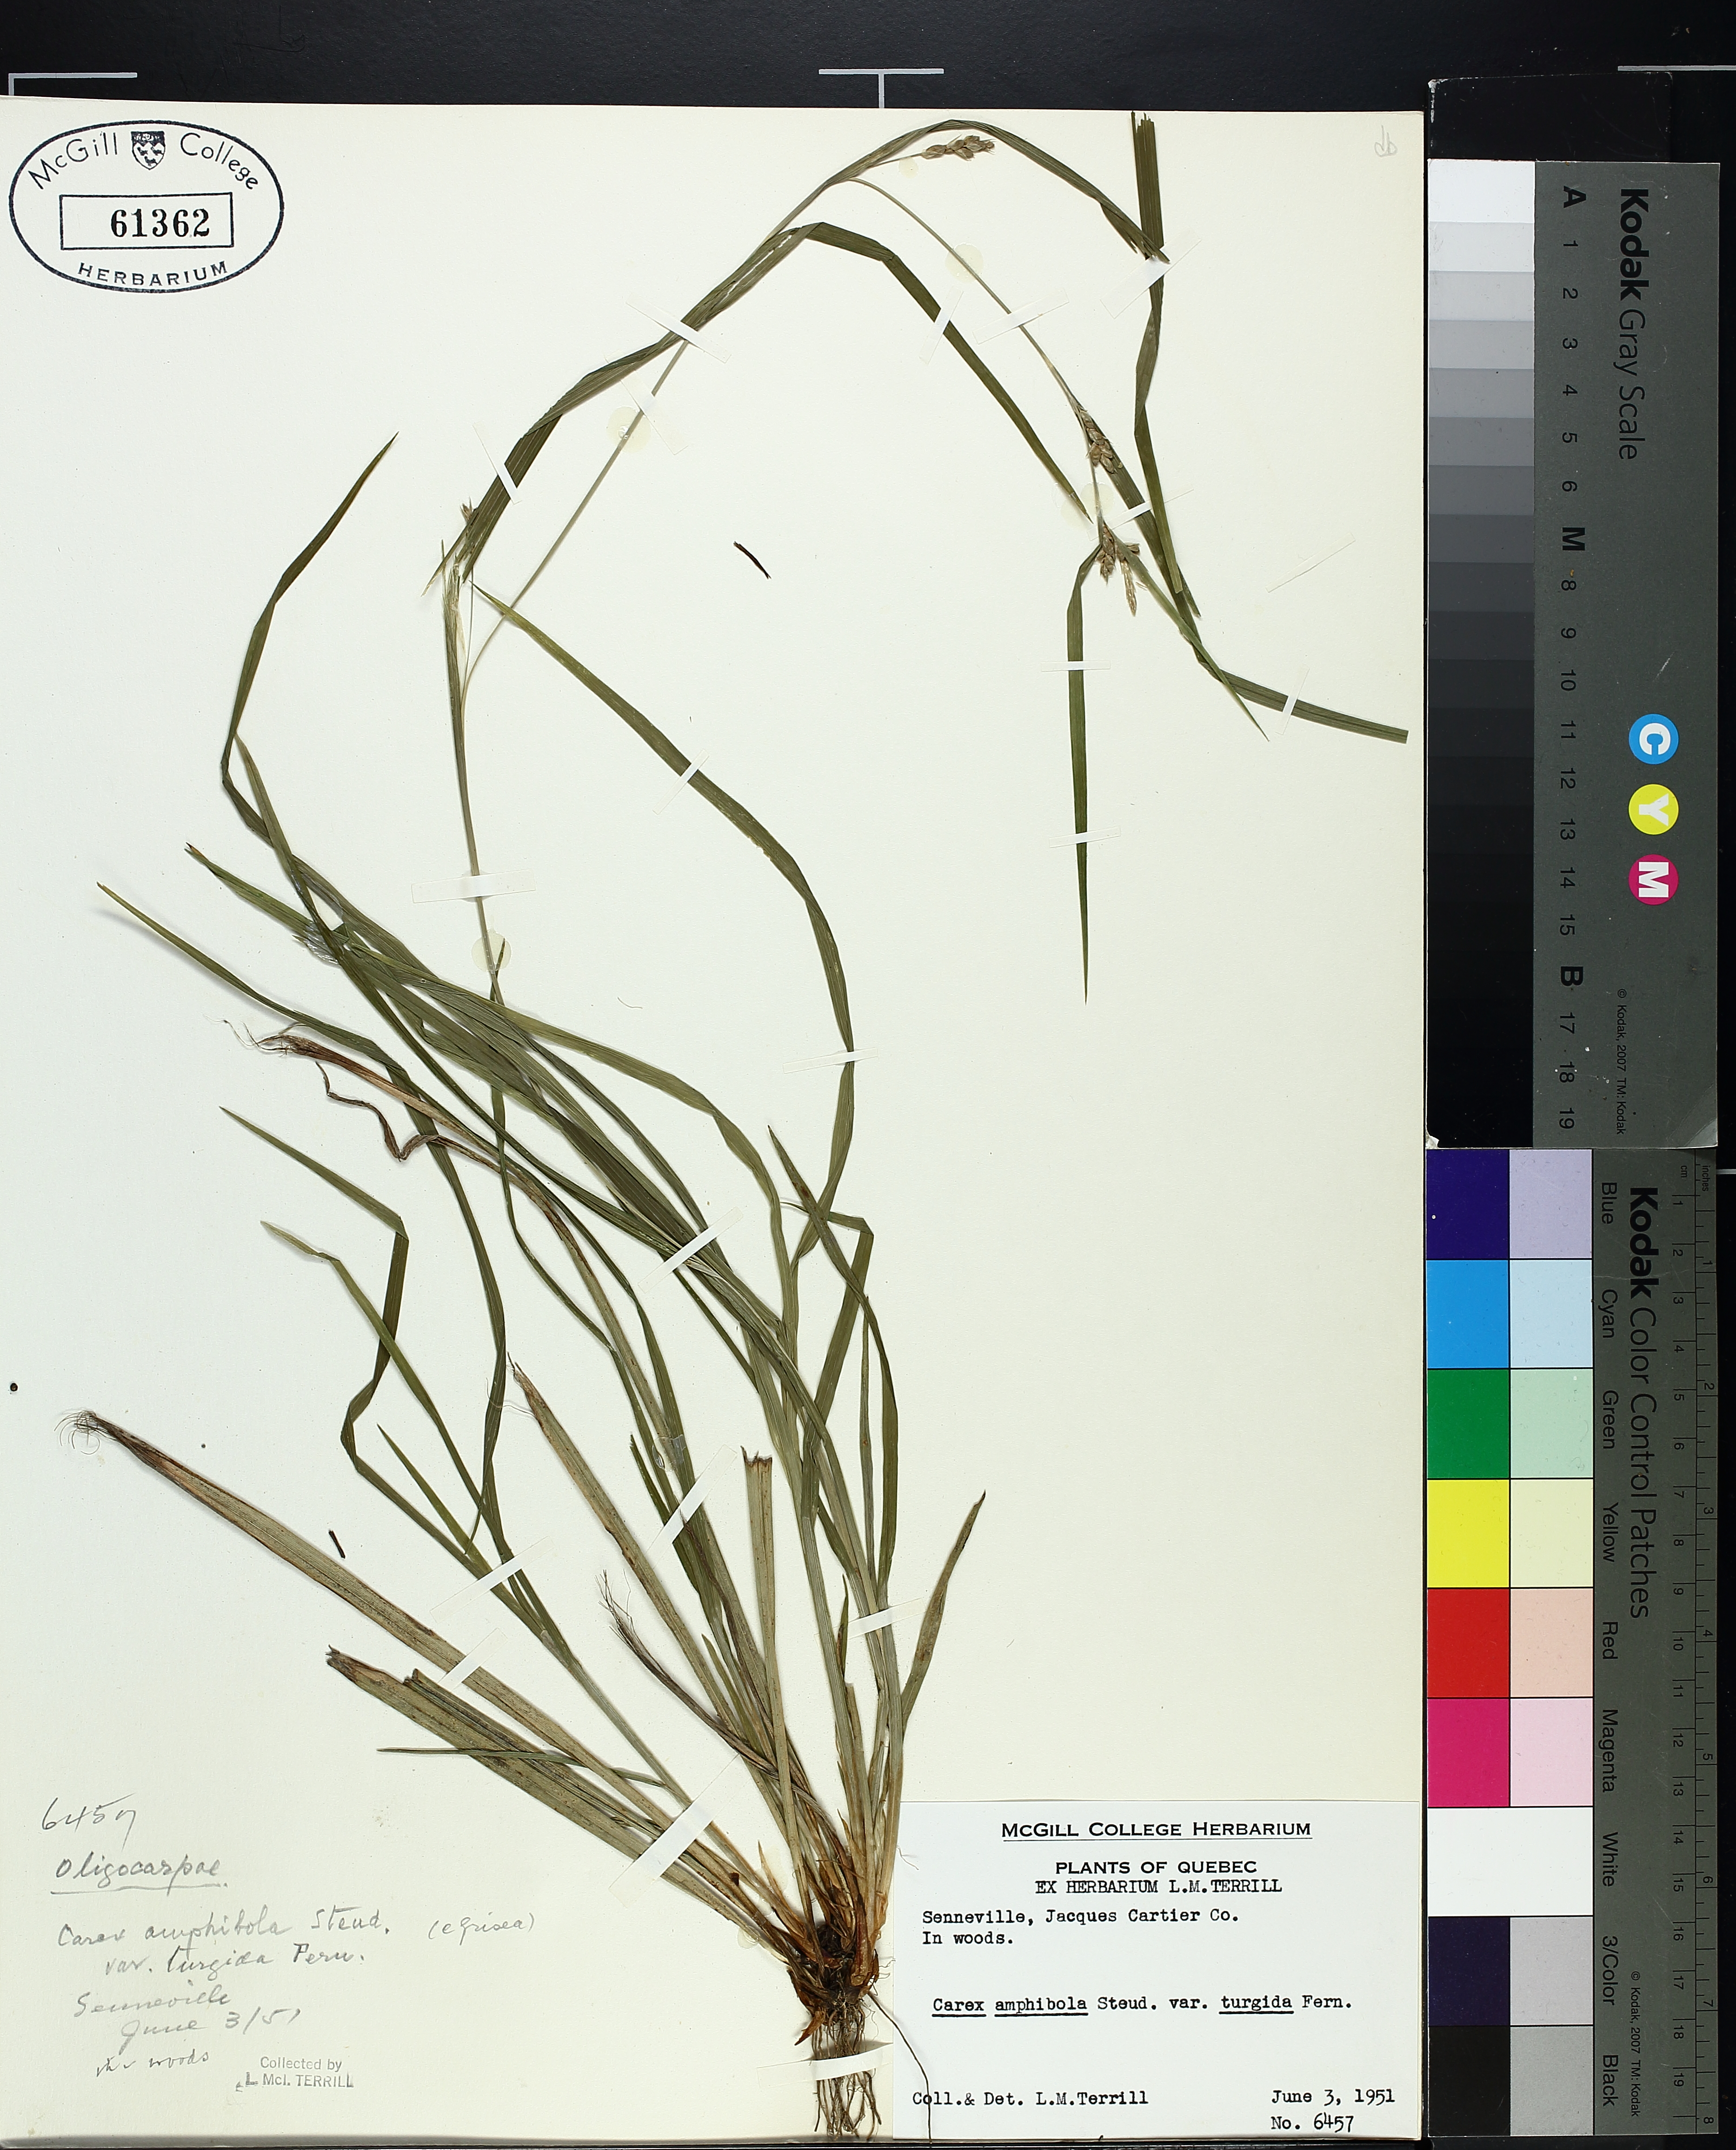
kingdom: Plantae
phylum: Tracheophyta
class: Liliopsida
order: Poales
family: Cyperaceae
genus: Carex
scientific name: Carex grisea
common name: Eastern narrow-leaved sedge
